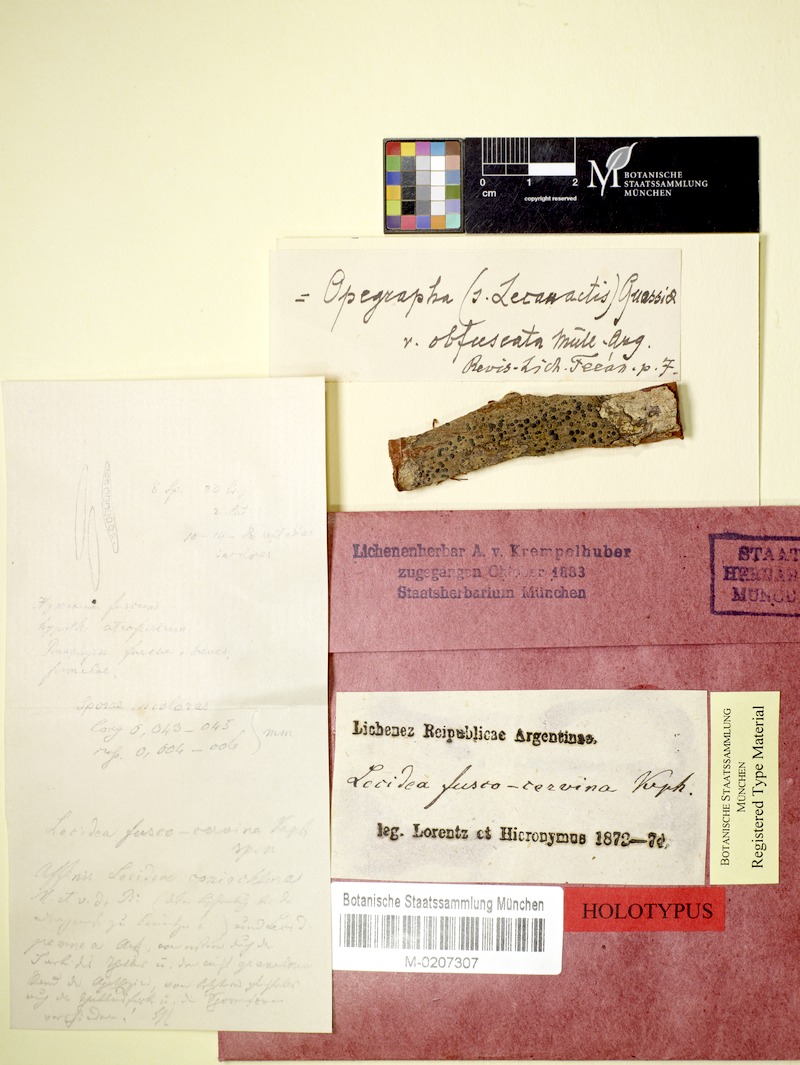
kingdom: Fungi
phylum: Ascomycota
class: Lecanoromycetes
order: Lecanorales
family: Ramalinaceae
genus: Bacidia
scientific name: Bacidia
